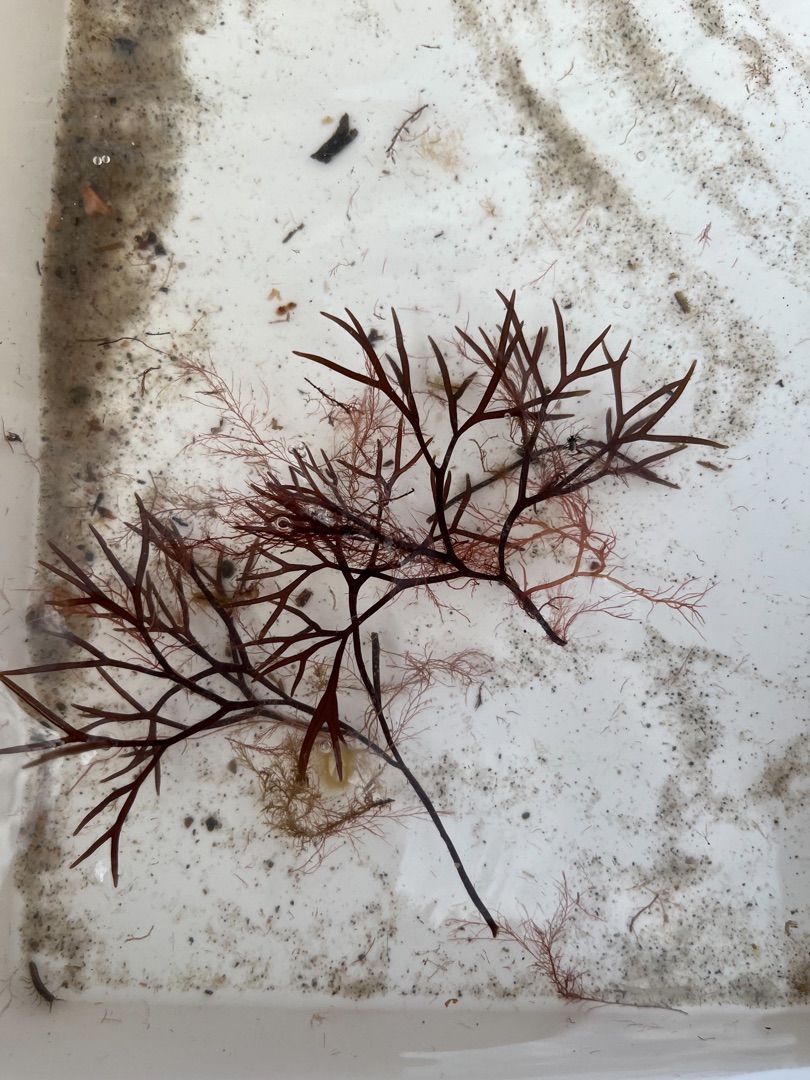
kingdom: Plantae
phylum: Rhodophyta
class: Florideophyceae
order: Gigartinales
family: Furcellariaceae
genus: Furcellaria
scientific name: Furcellaria lumbricalis
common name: Gaffeltang
